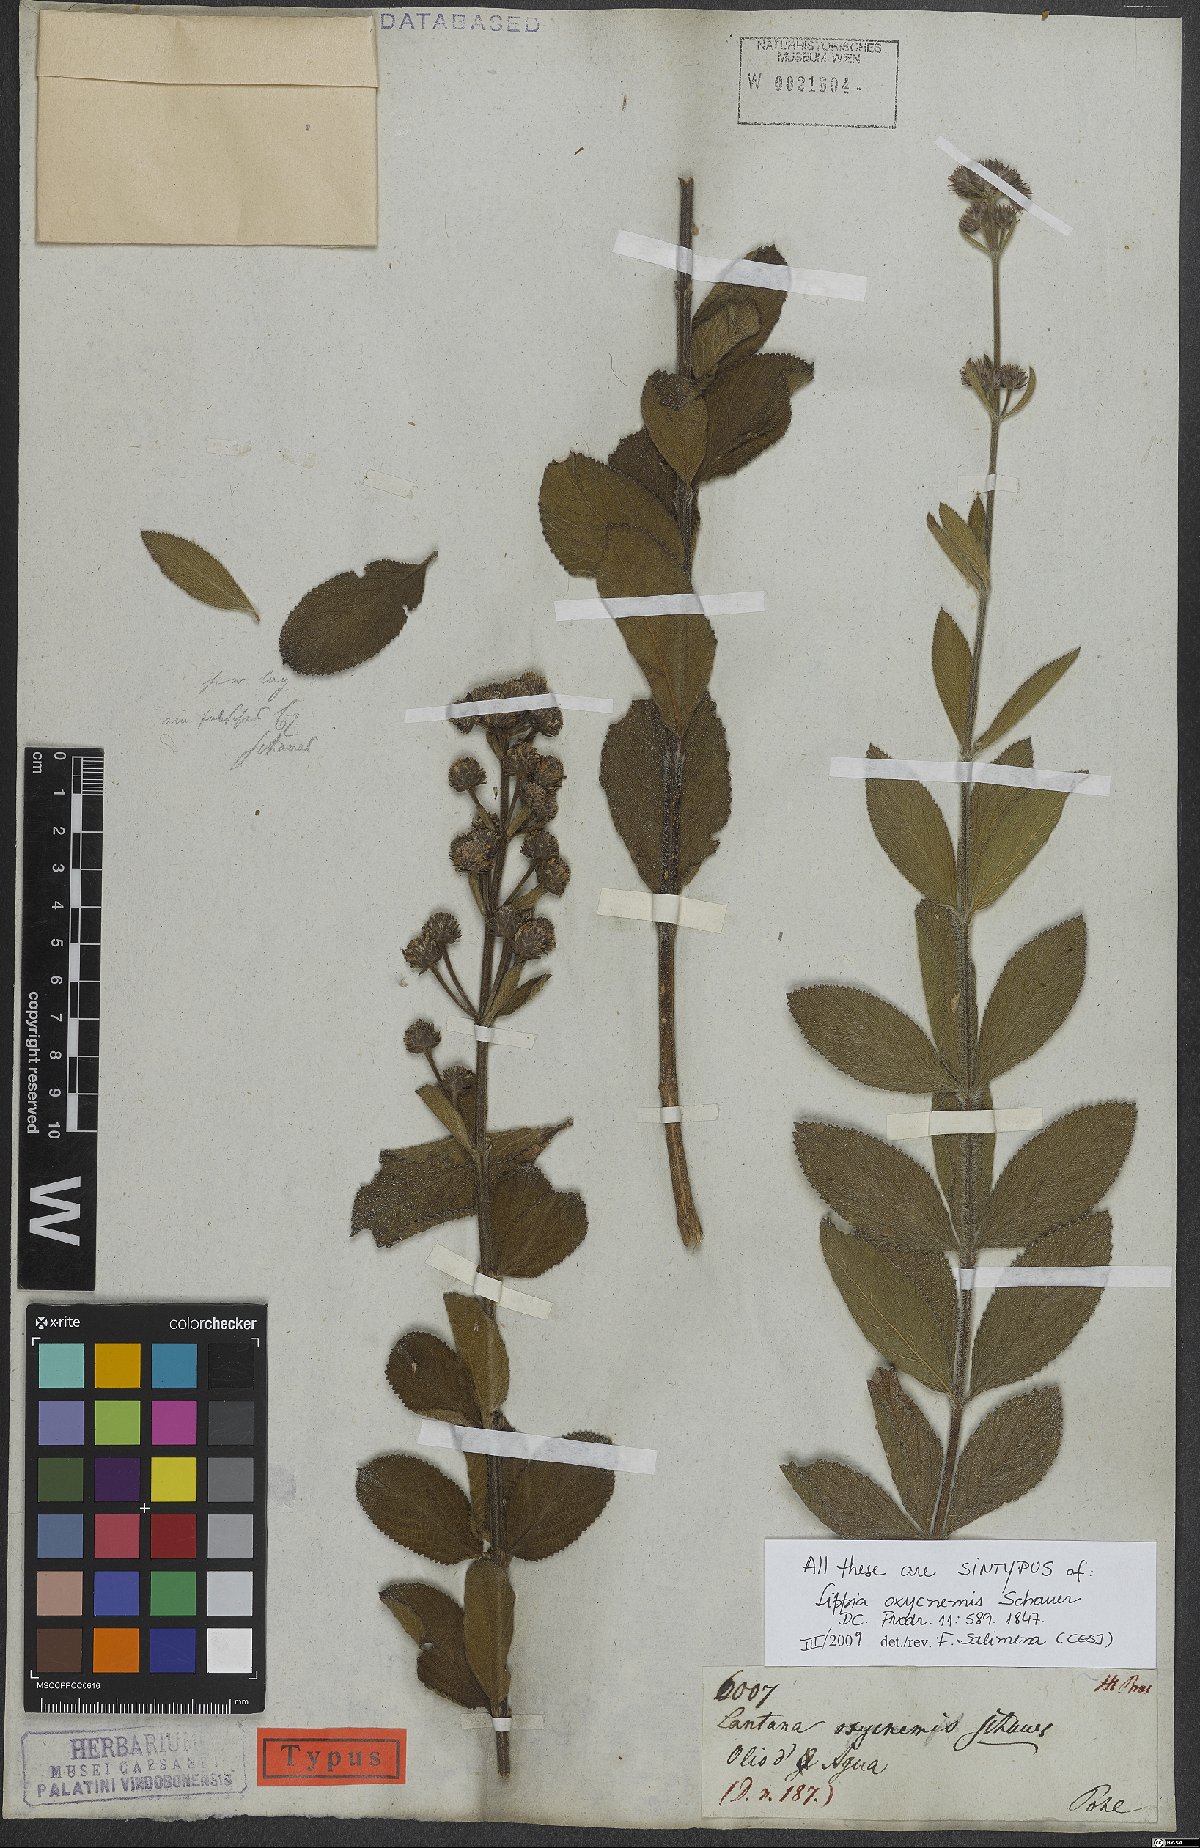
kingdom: Plantae
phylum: Tracheophyta
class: Magnoliopsida
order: Lamiales
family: Verbenaceae
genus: Lippia
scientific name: Lippia oxycnemis
